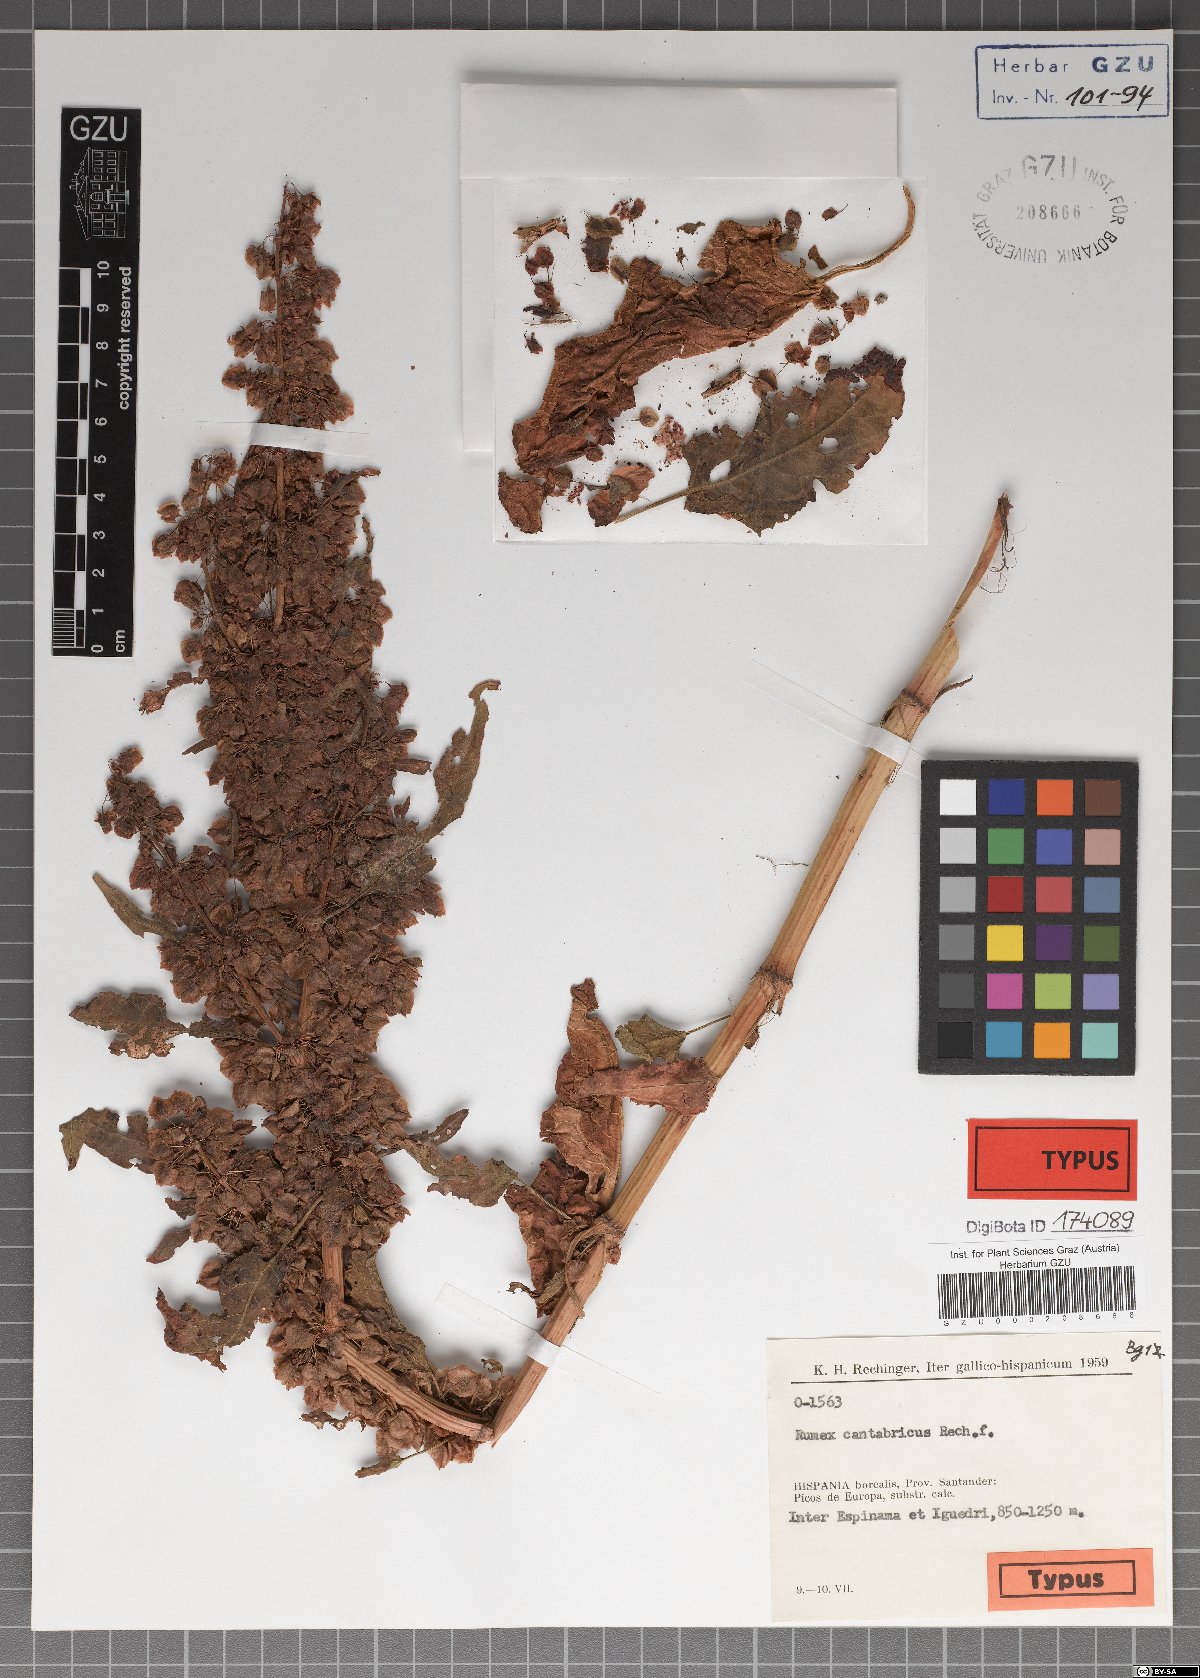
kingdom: Plantae
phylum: Tracheophyta
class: Magnoliopsida
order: Caryophyllales
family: Polygonaceae
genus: Rumex
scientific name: Rumex aquitanicus
